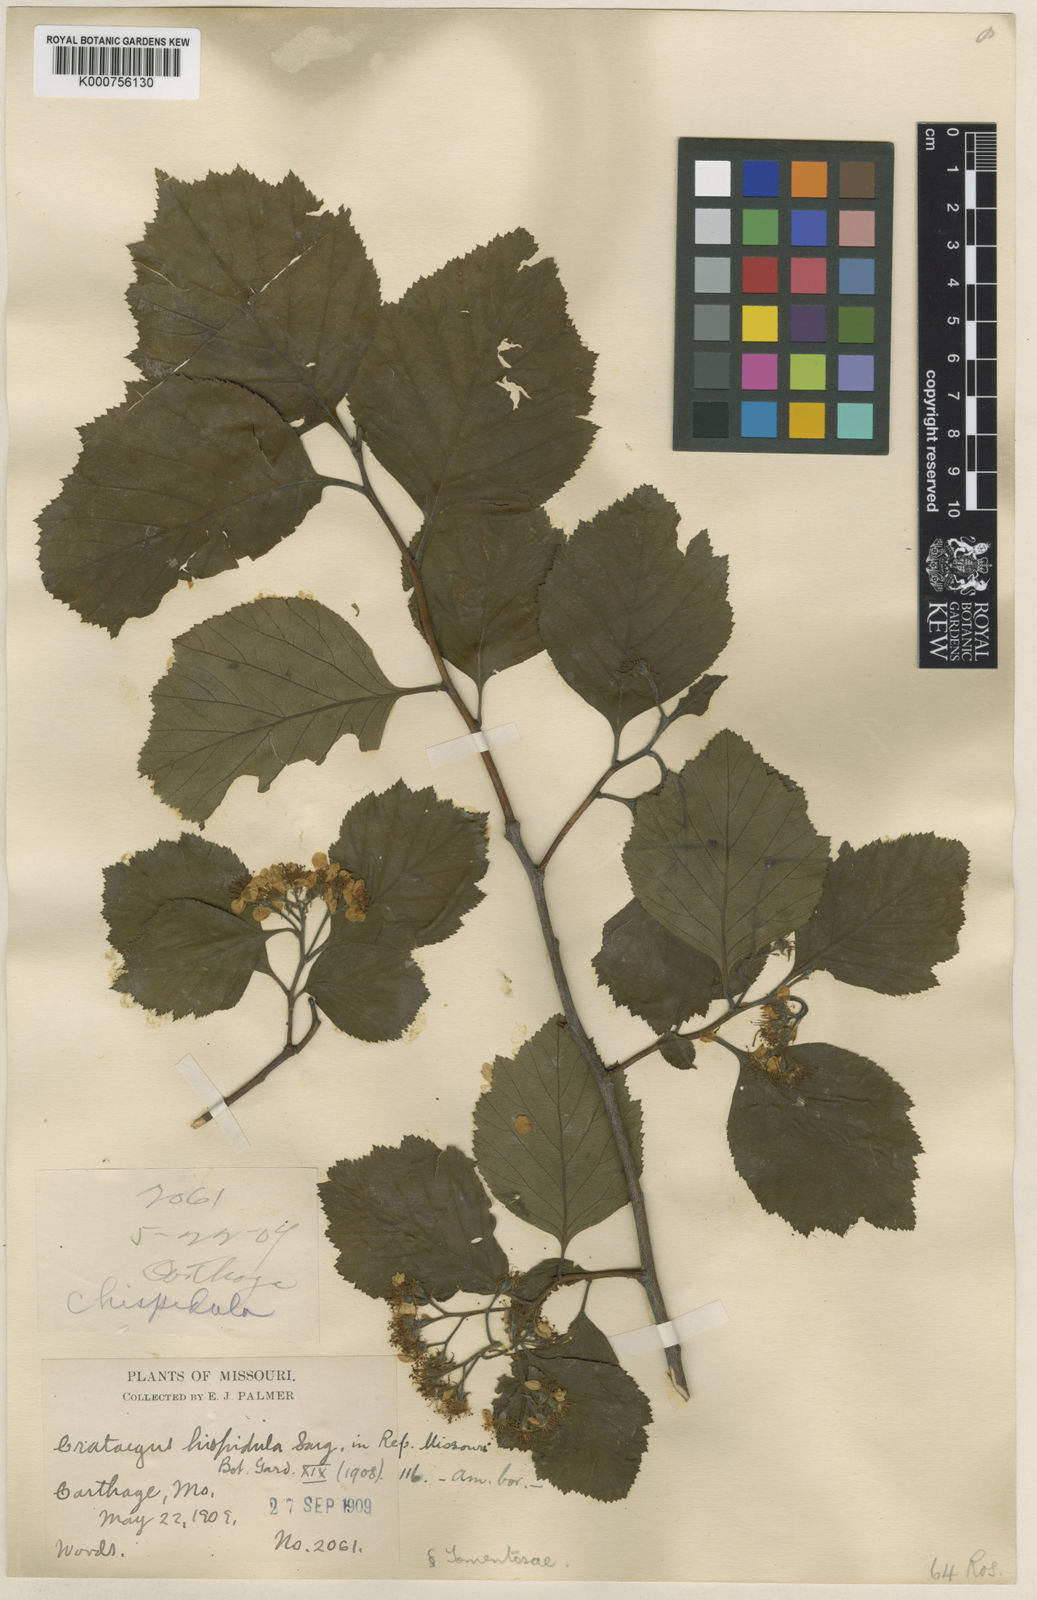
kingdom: Plantae
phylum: Tracheophyta
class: Magnoliopsida
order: Rosales
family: Rosaceae
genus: Crataegus
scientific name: Crataegus calpodendron
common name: Pear hawthorn
